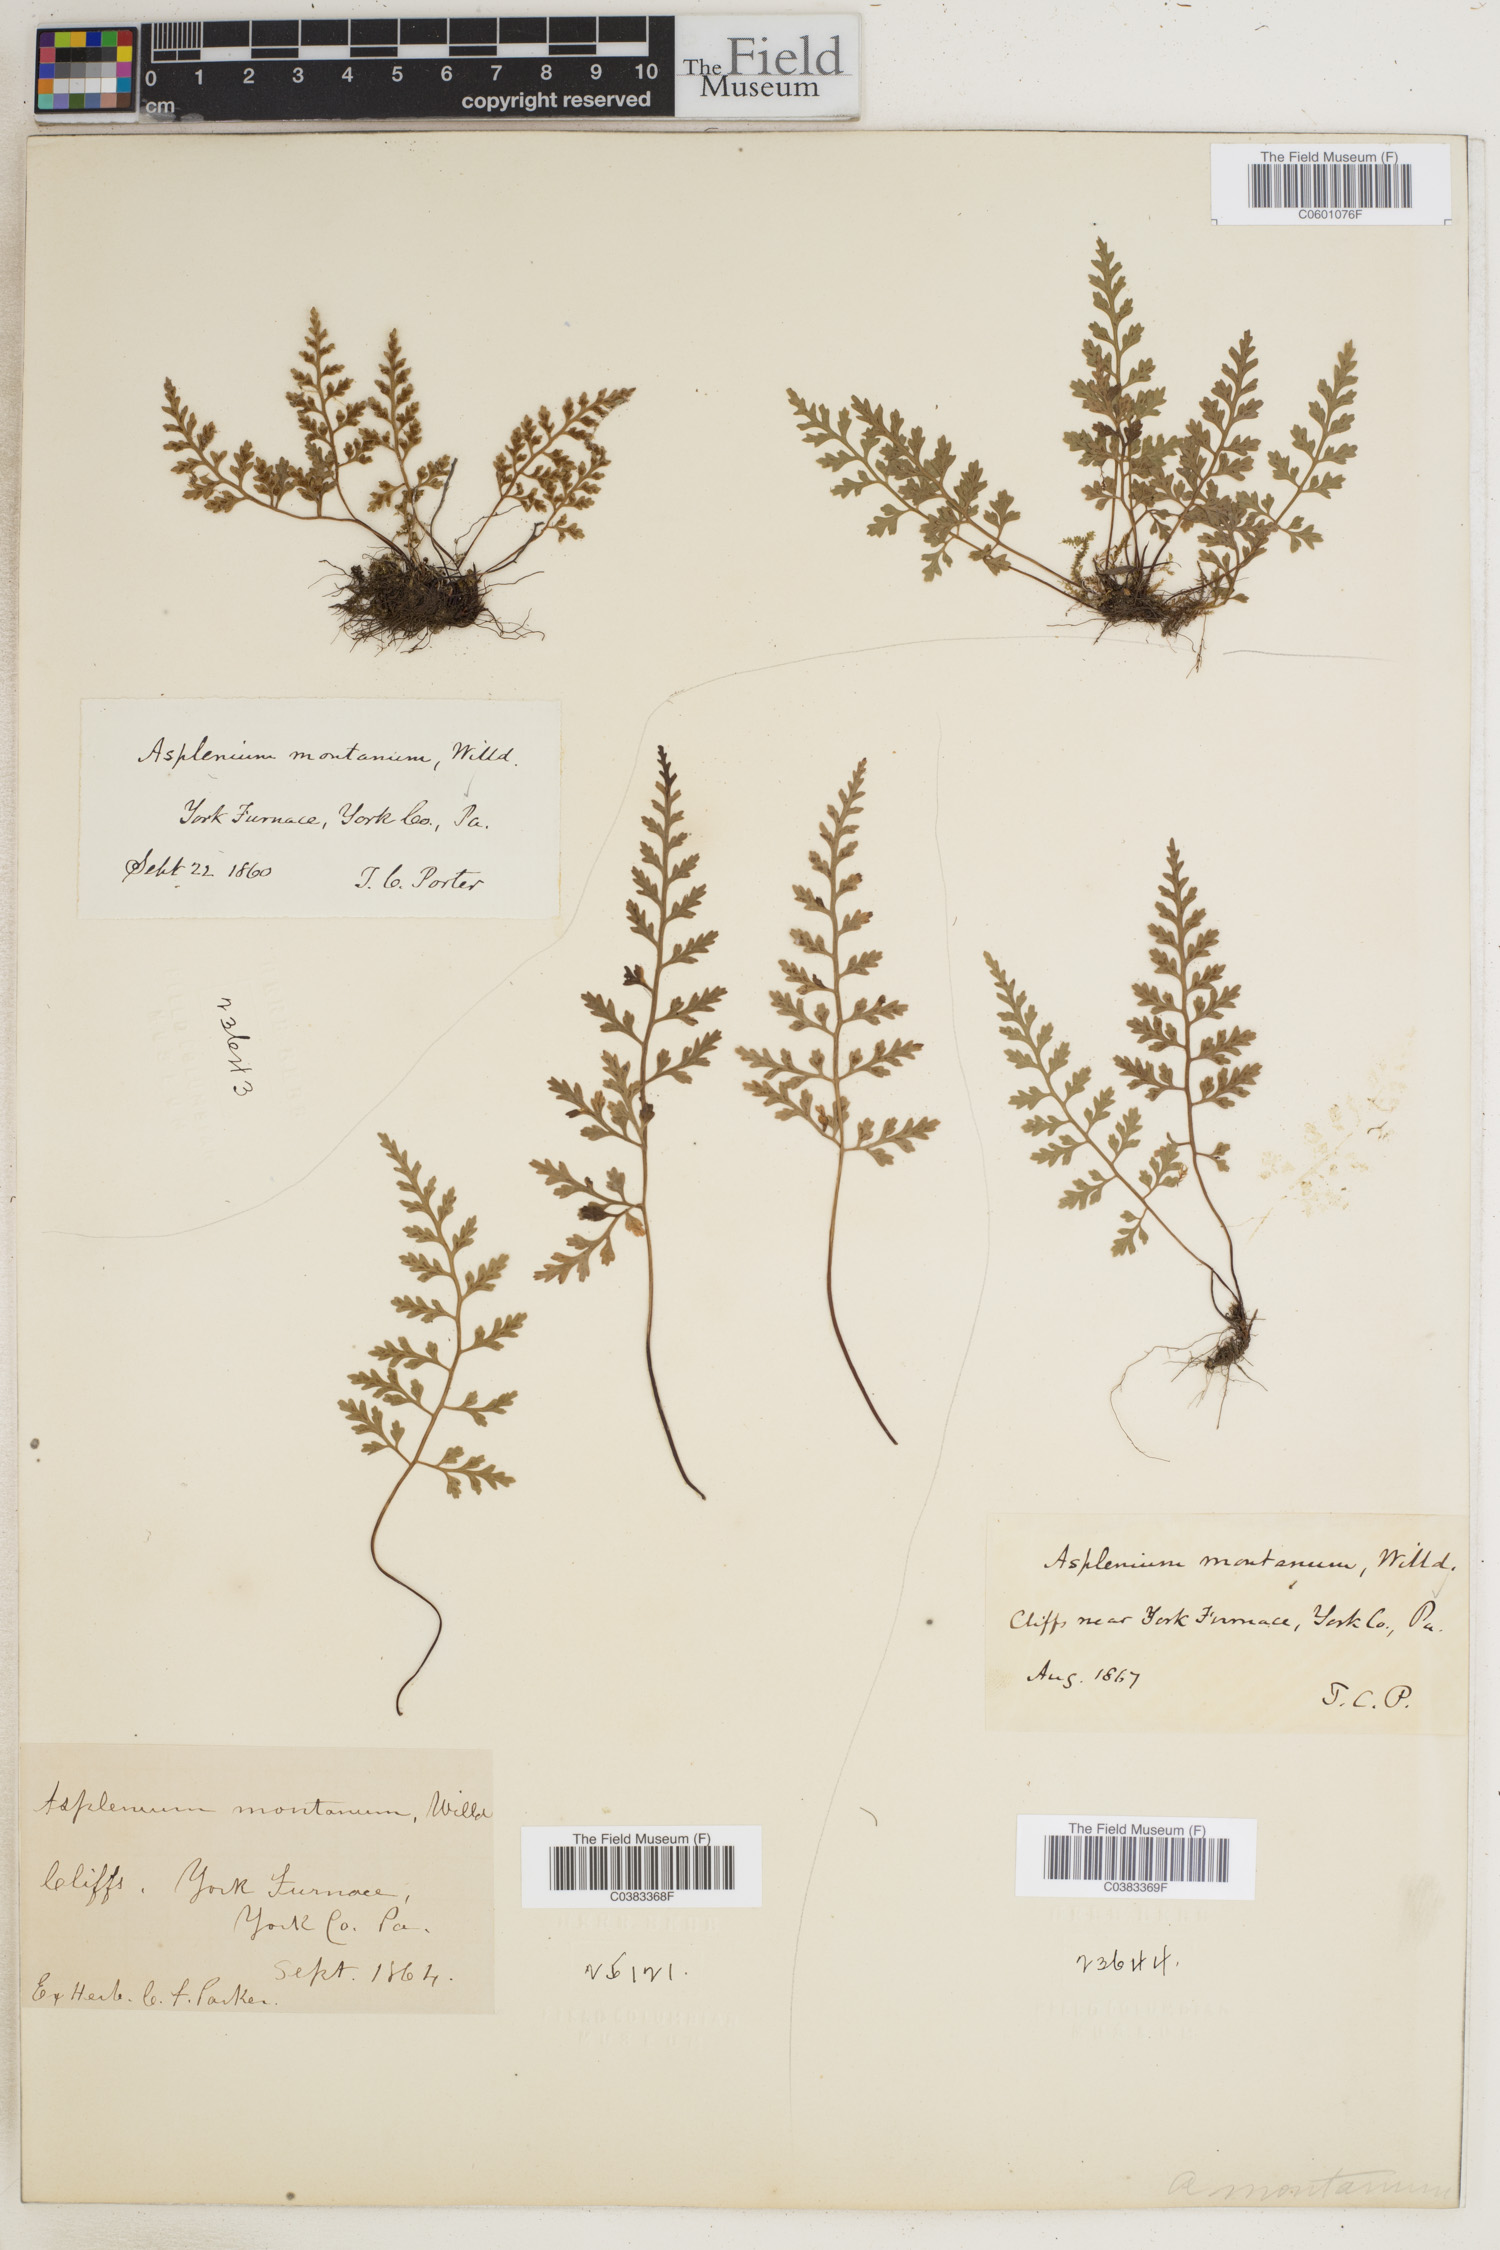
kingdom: Plantae
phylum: Tracheophyta
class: Polypodiopsida
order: Polypodiales
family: Aspleniaceae
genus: Asplenium
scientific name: Asplenium montanum
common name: Mountain spleenwort
